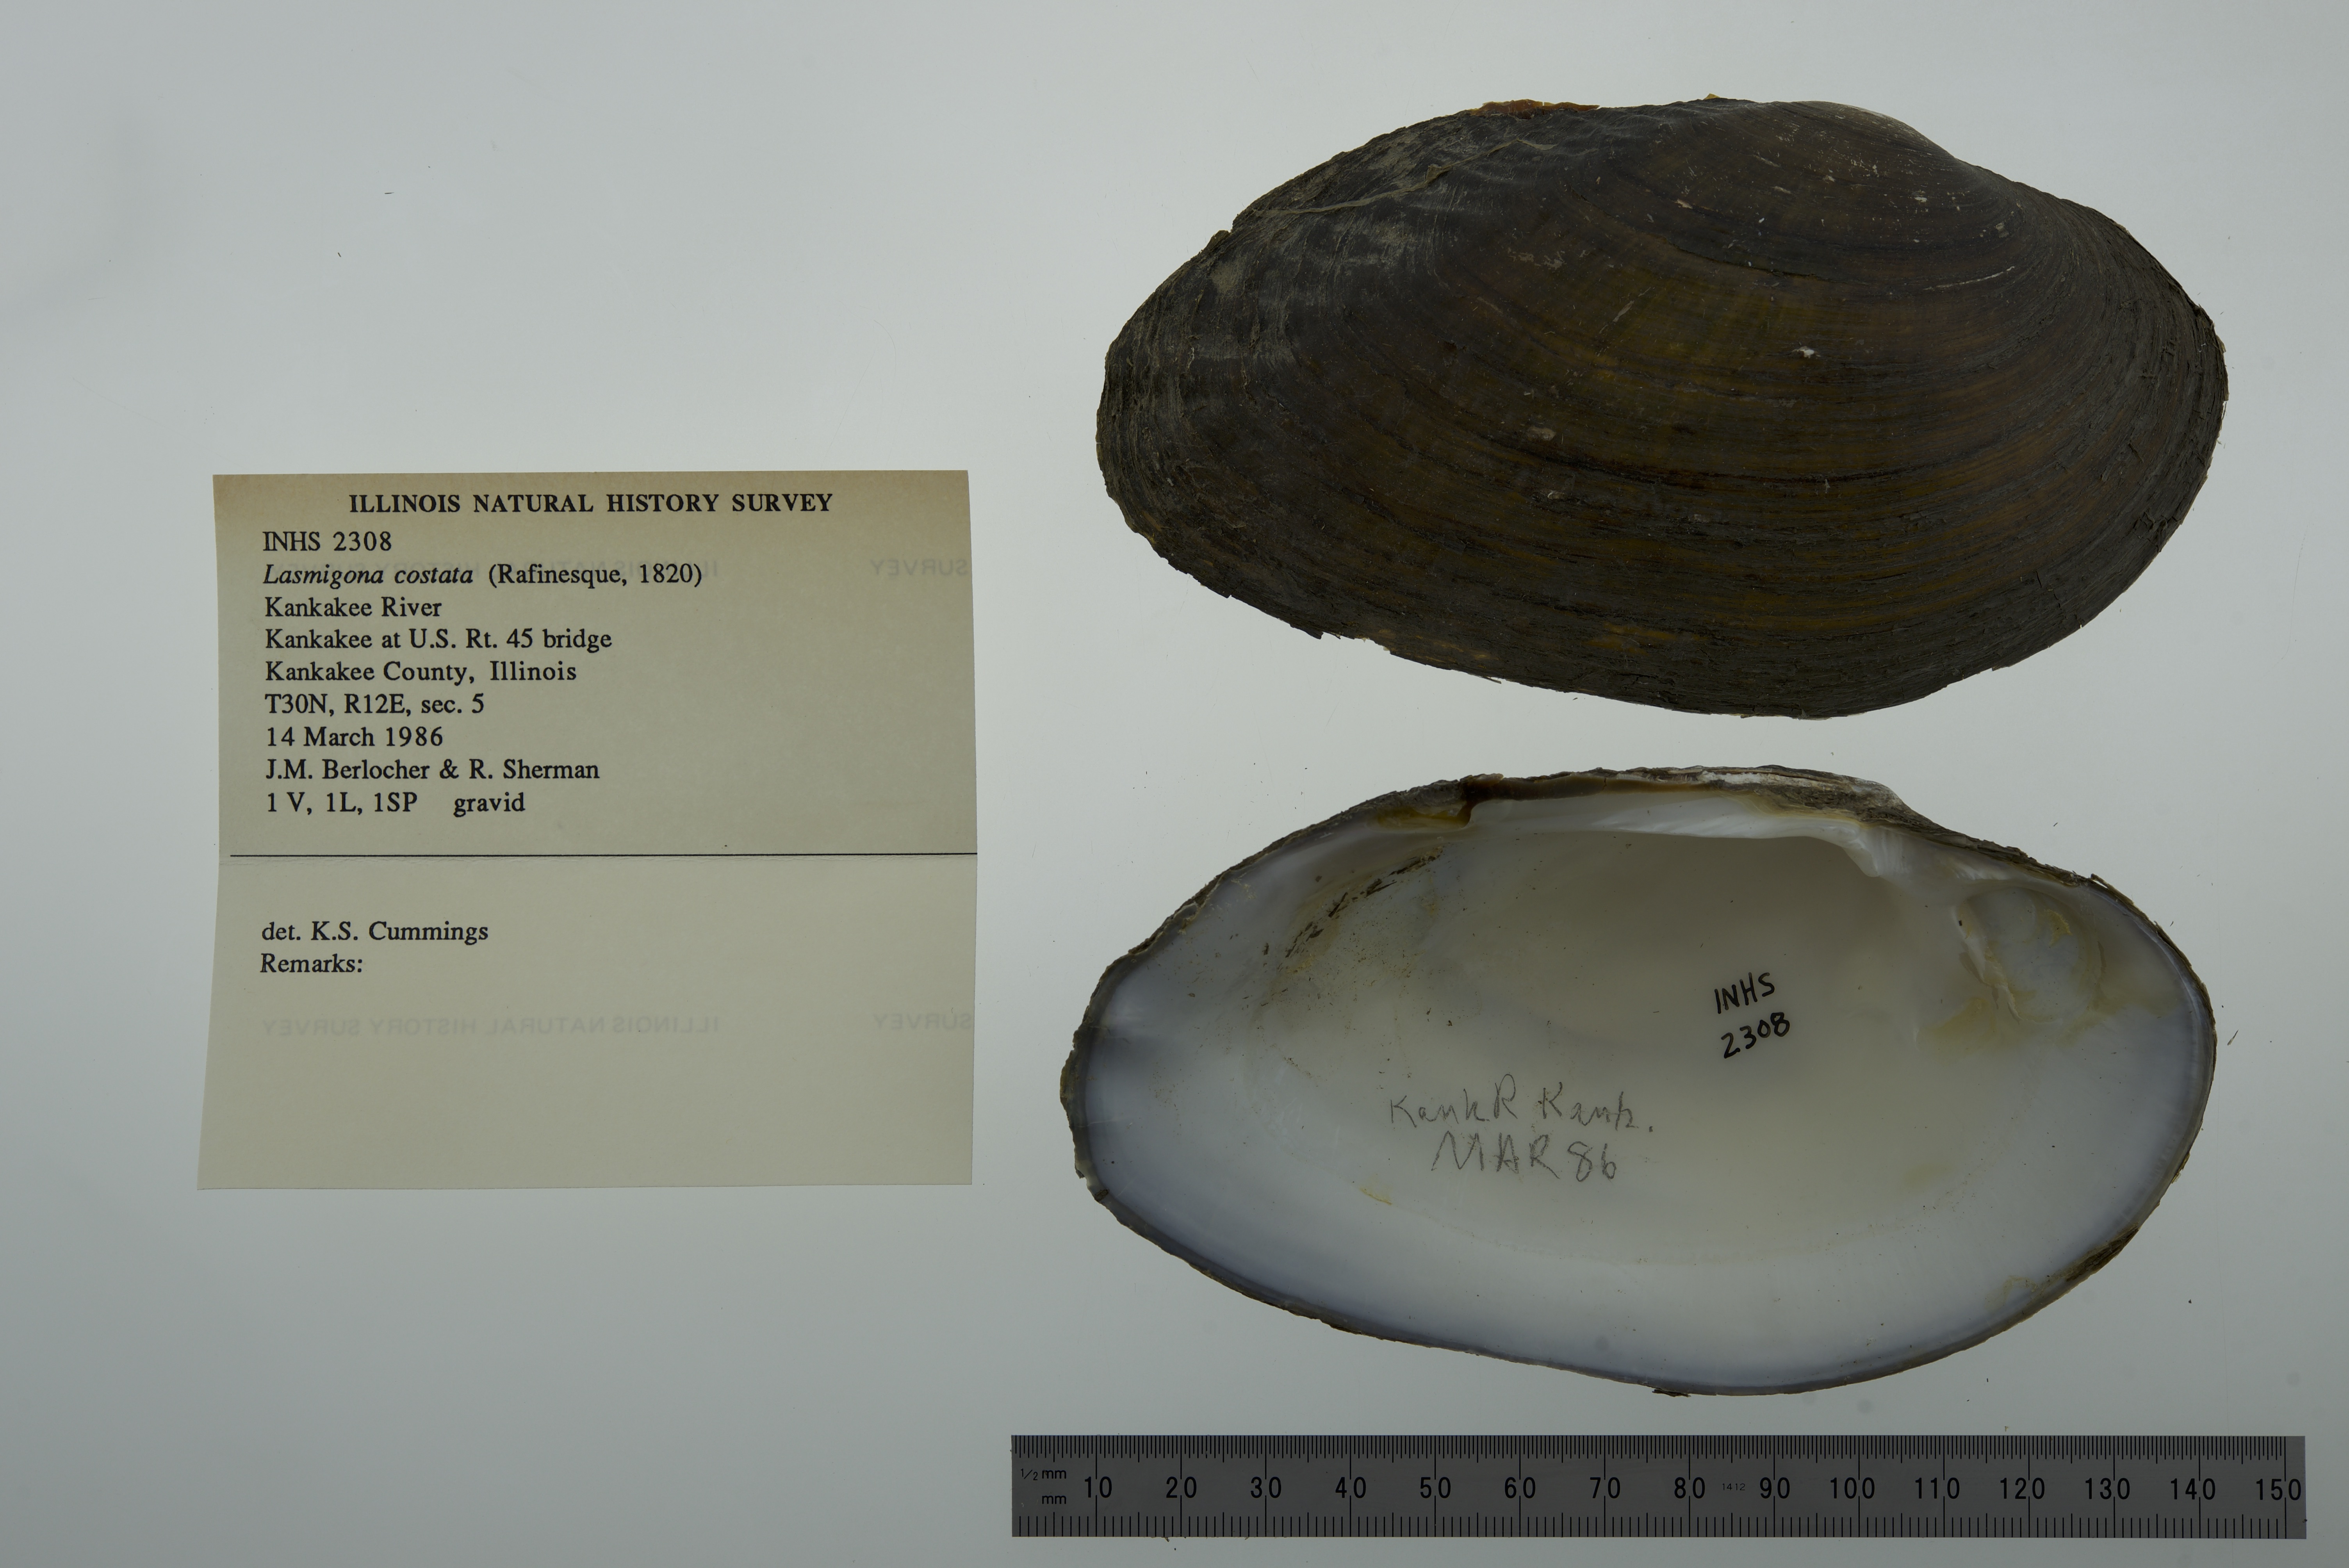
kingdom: Animalia
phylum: Mollusca
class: Bivalvia
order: Unionida
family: Unionidae
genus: Lasmigona
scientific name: Lasmigona costata
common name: Flutedshell
